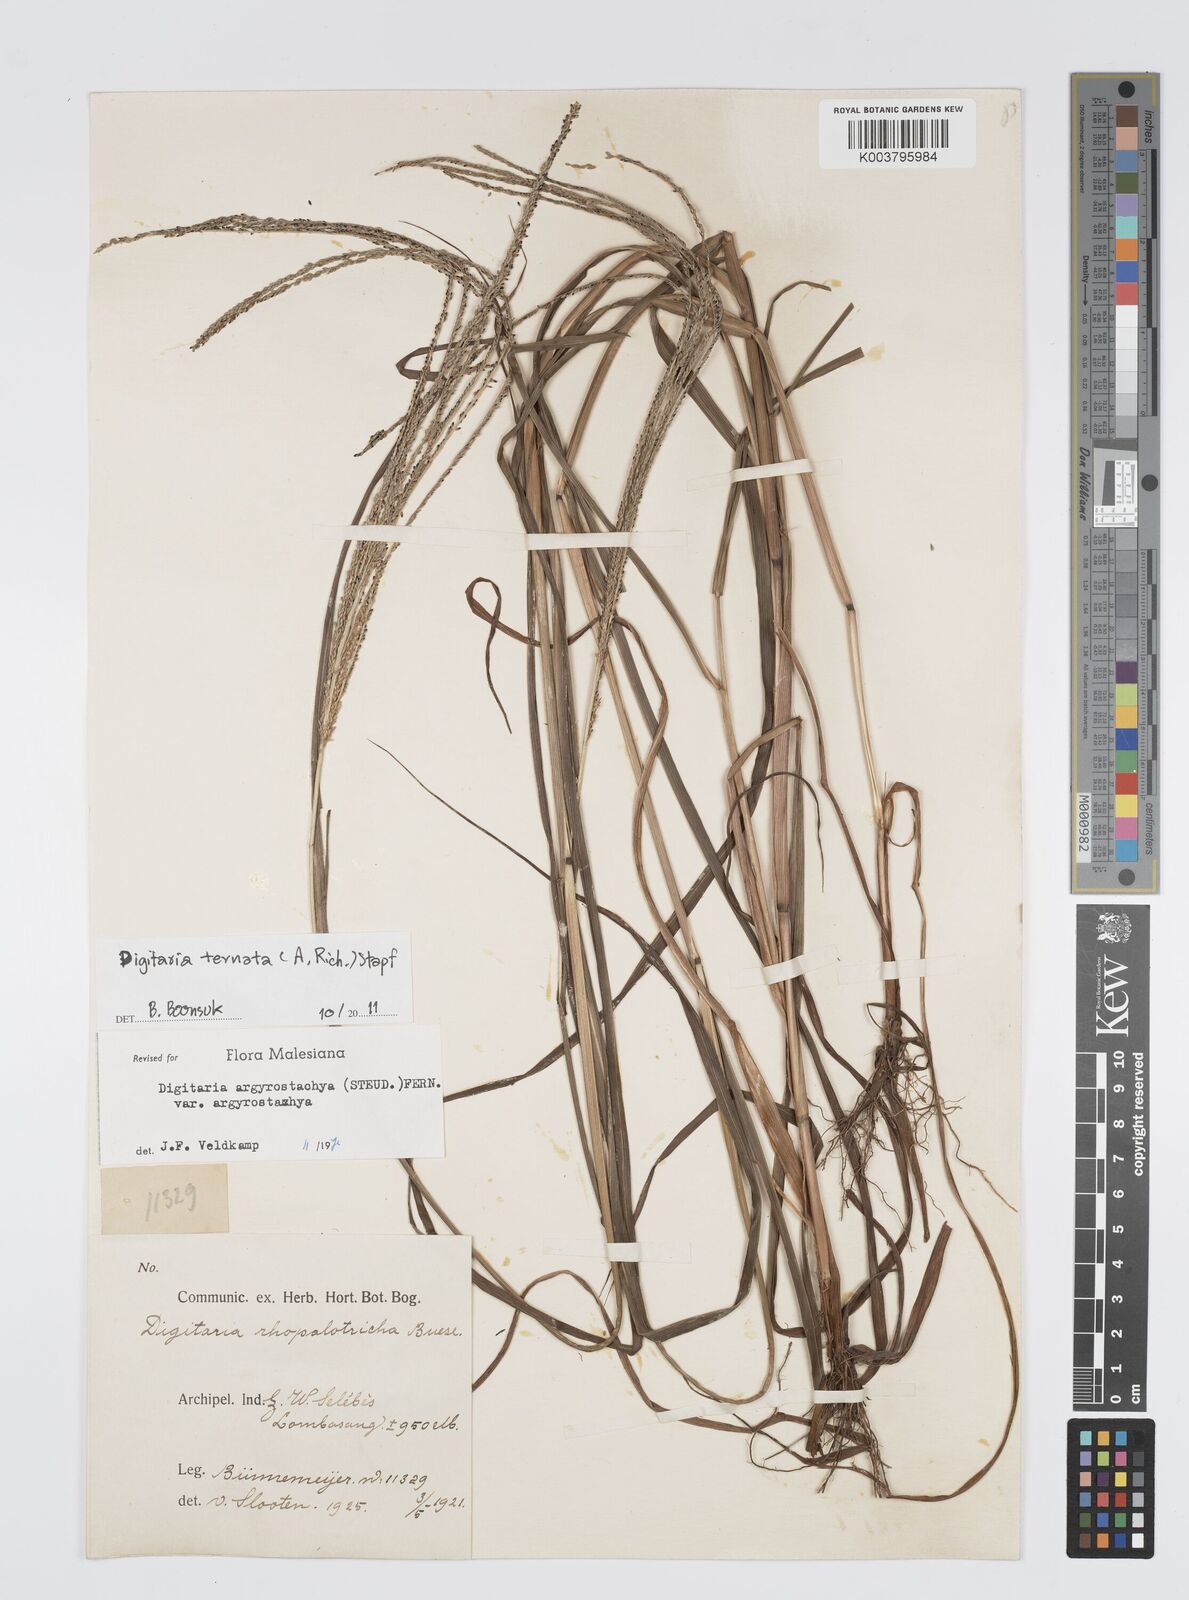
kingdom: Plantae
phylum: Tracheophyta
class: Liliopsida
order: Poales
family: Poaceae
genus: Digitaria
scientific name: Digitaria ternata
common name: Blackseed crabgrass
